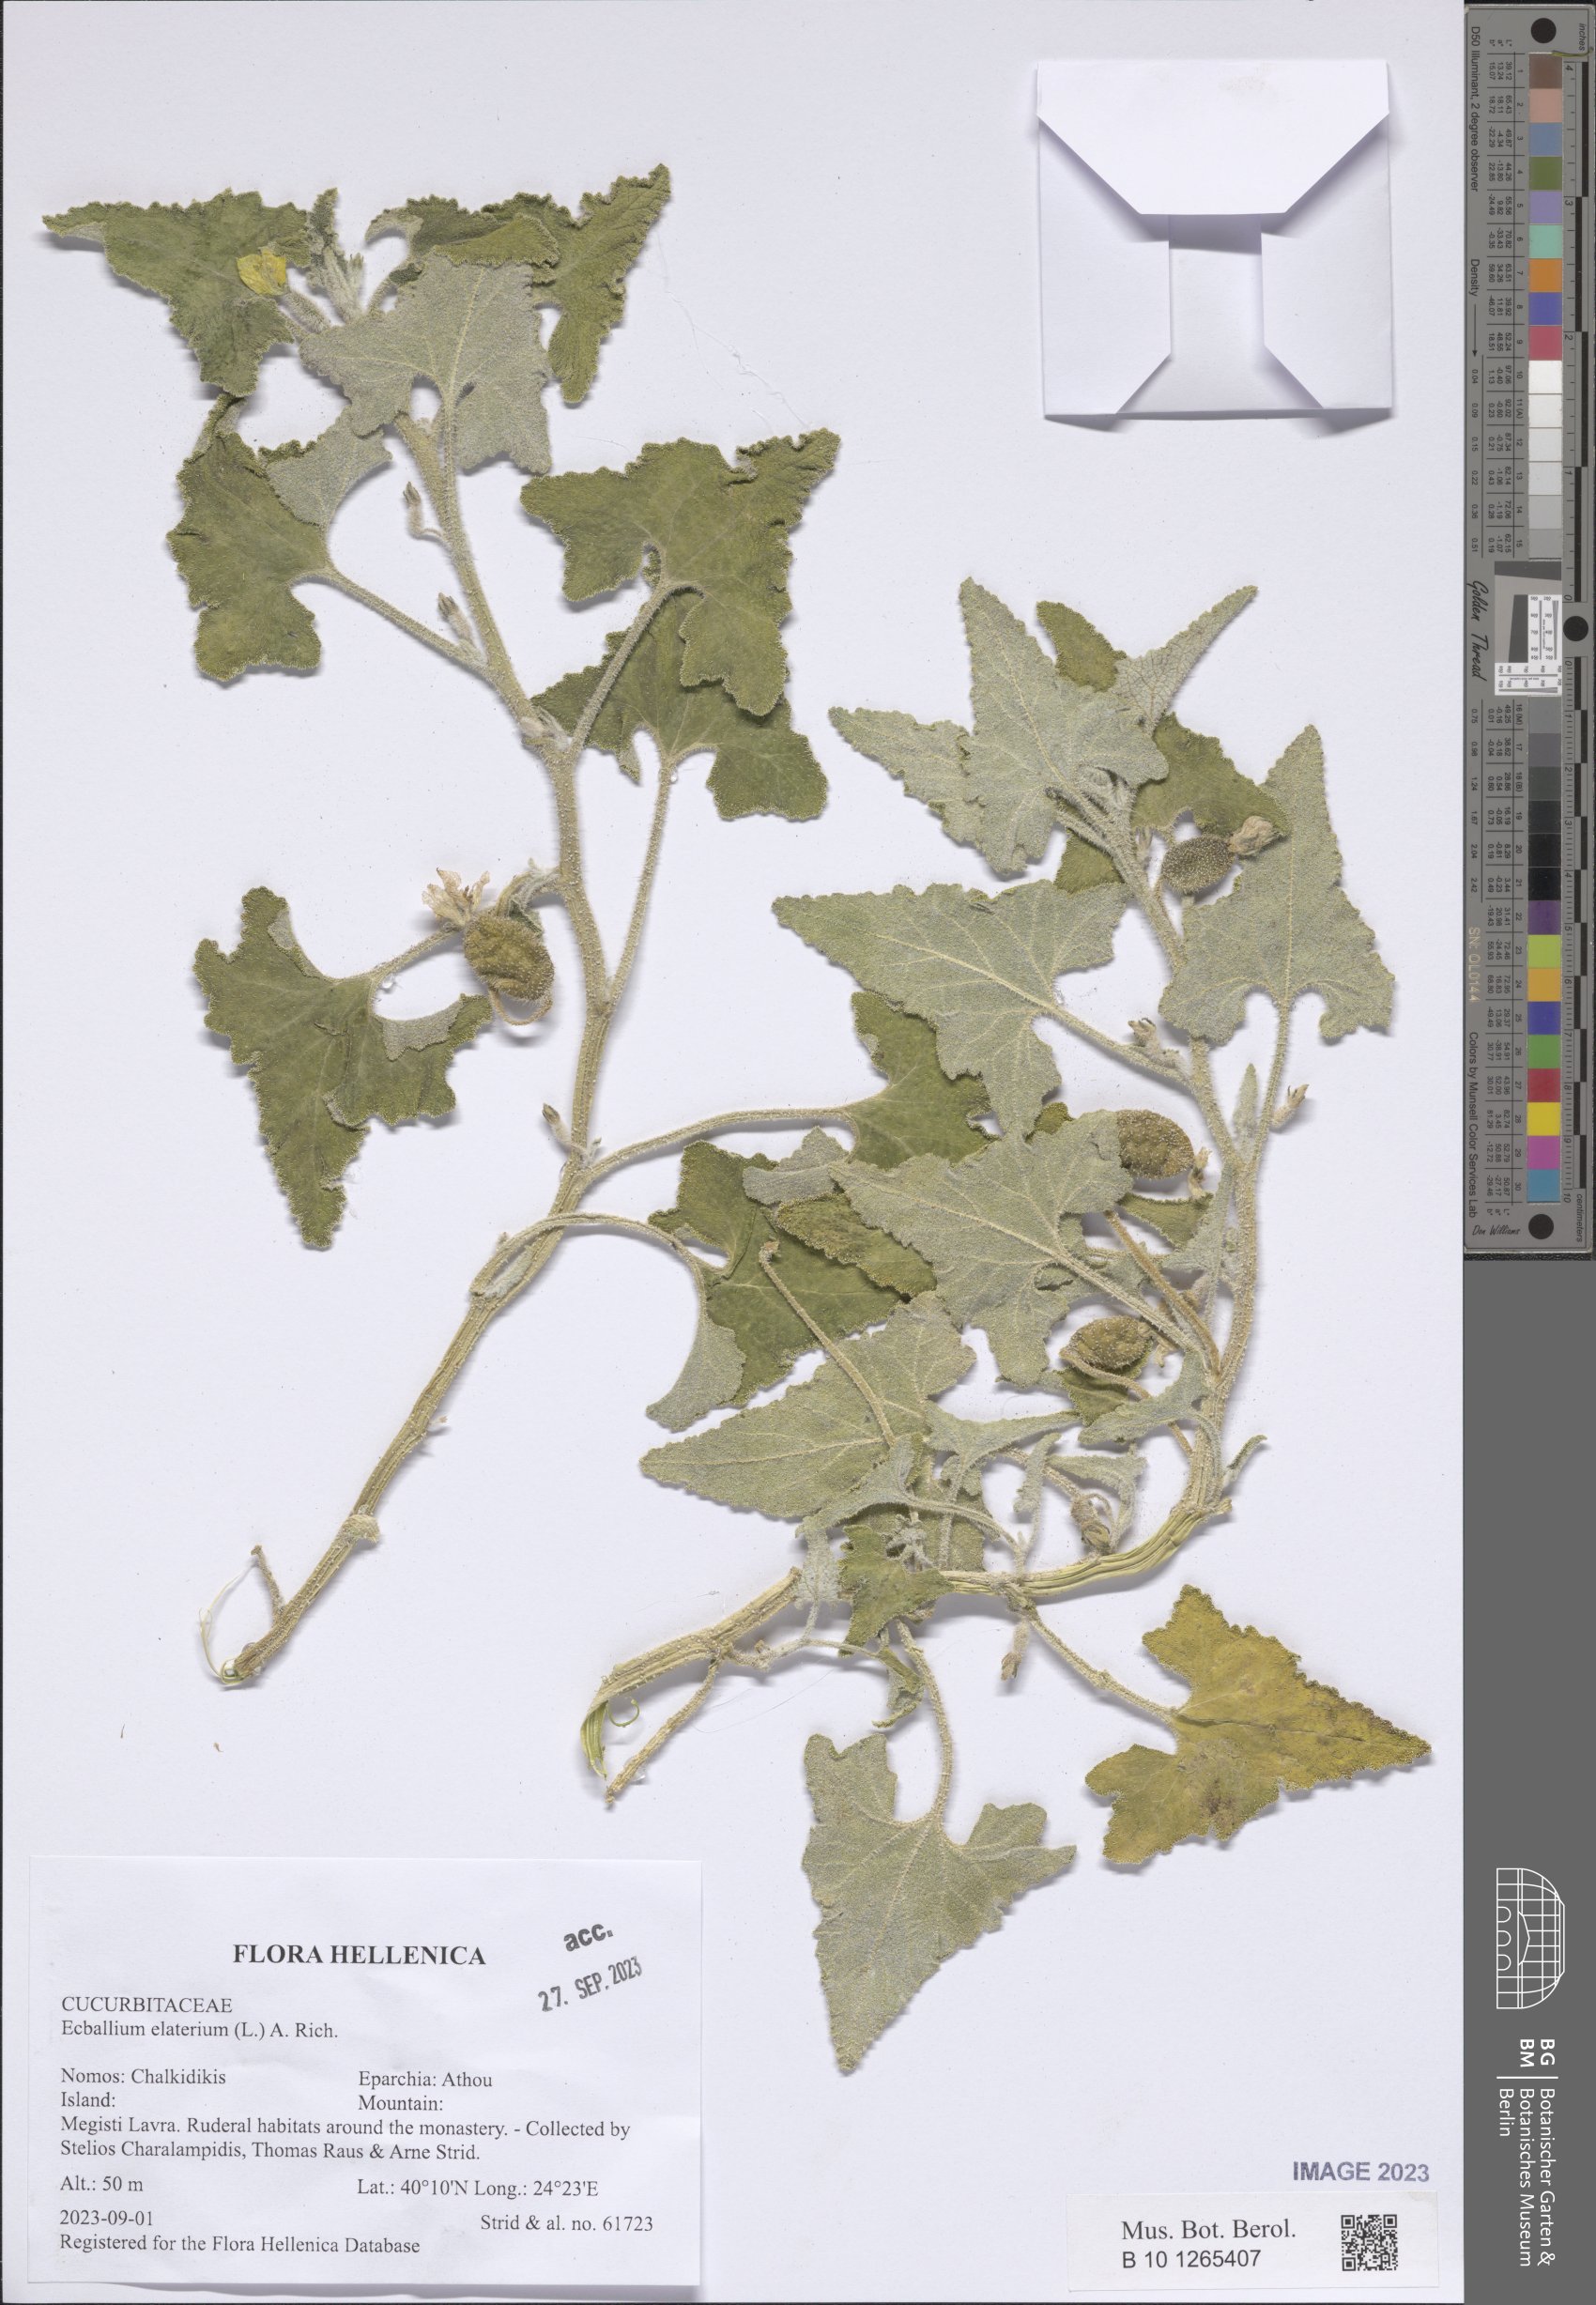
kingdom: Plantae
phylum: Tracheophyta
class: Magnoliopsida
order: Cucurbitales
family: Cucurbitaceae
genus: Ecballium
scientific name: Ecballium elaterium
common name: Squirting cucumber
